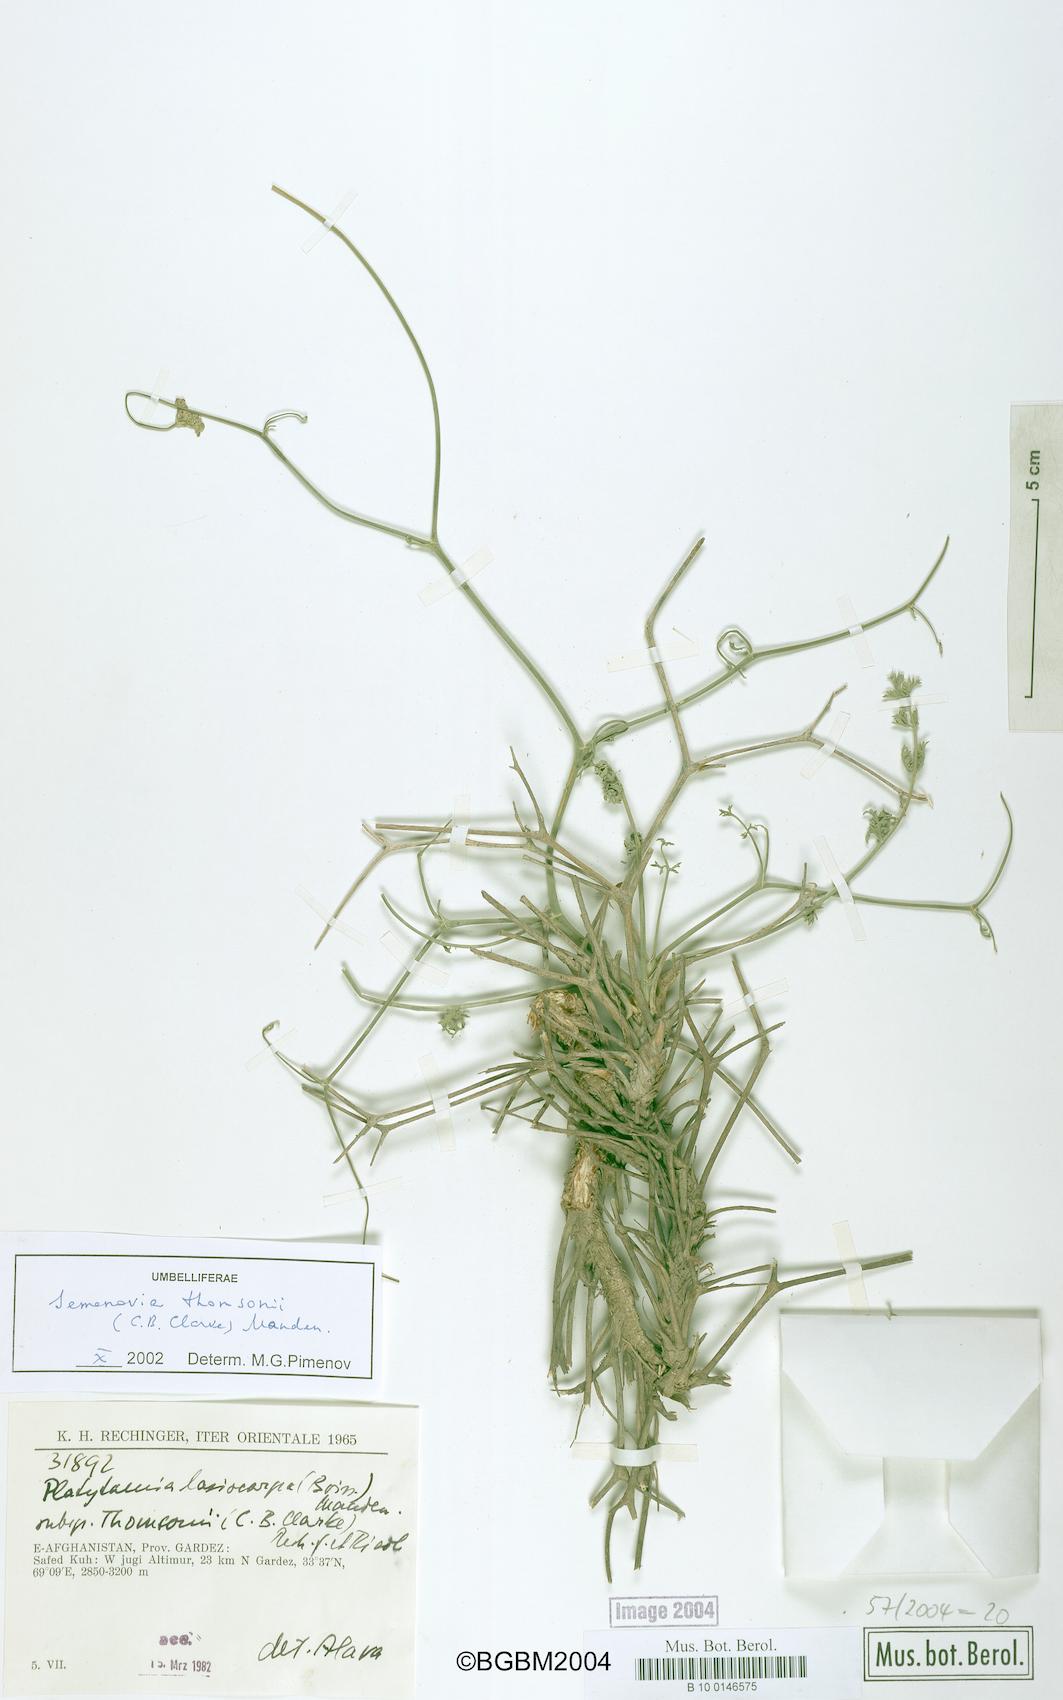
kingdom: Plantae
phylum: Tracheophyta
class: Magnoliopsida
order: Apiales
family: Apiaceae
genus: Semenovia
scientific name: Semenovia thomsonii
